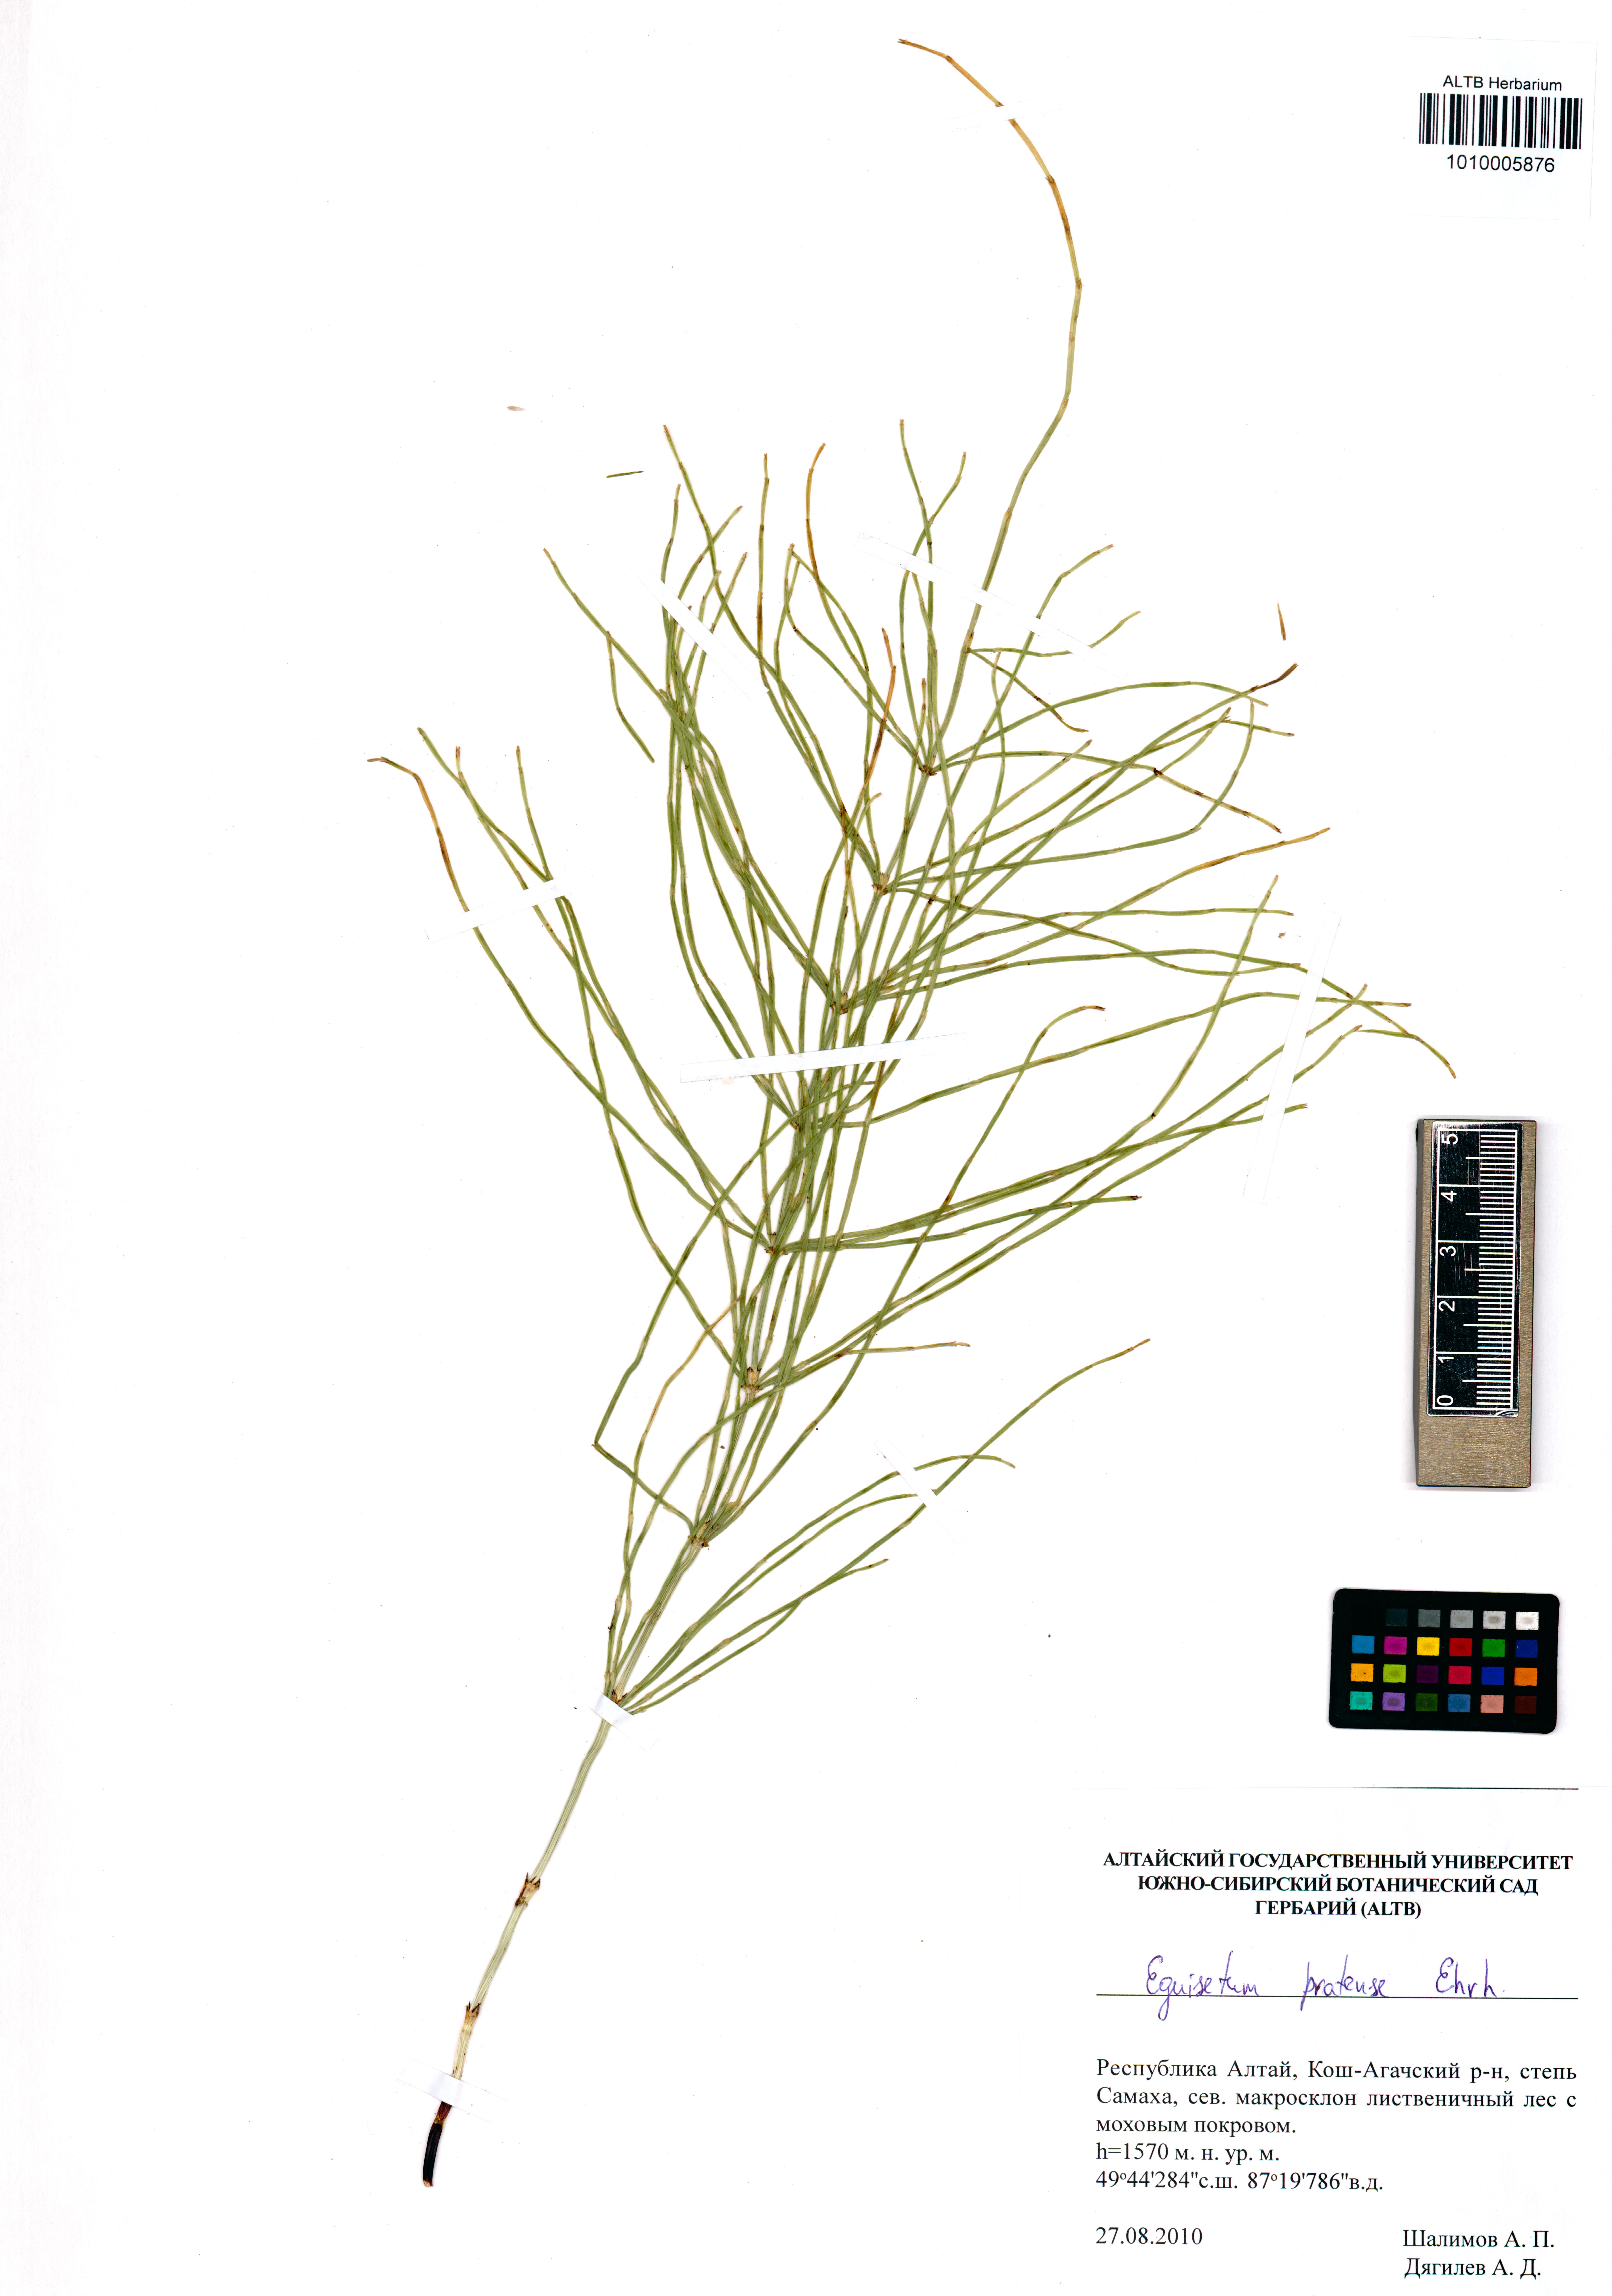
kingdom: Plantae
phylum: Tracheophyta
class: Polypodiopsida
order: Equisetales
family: Equisetaceae
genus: Equisetum
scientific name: Equisetum pratense
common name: Meadow horsetail
